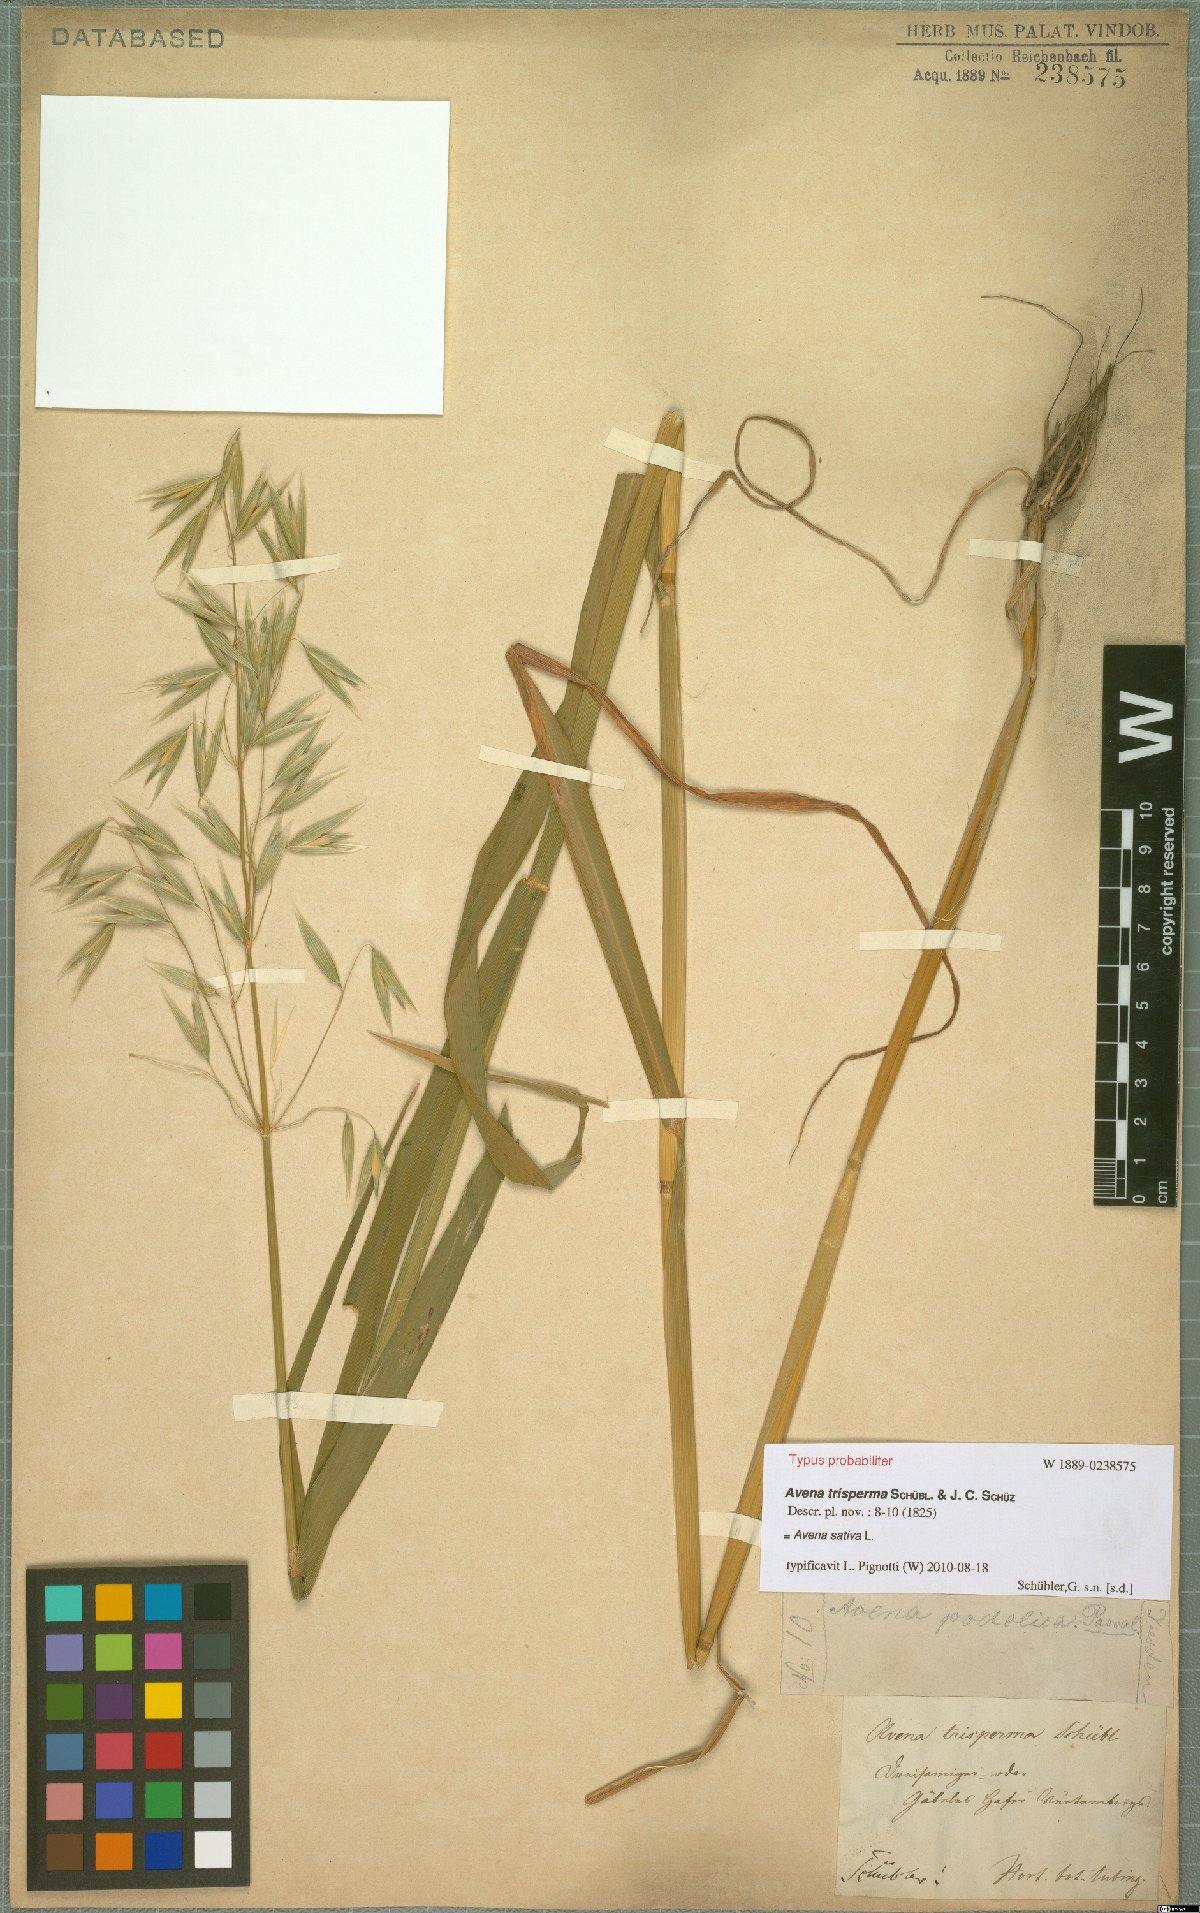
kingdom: Plantae
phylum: Tracheophyta
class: Liliopsida
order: Poales
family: Poaceae
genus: Avena
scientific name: Avena sativa
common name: Oat
